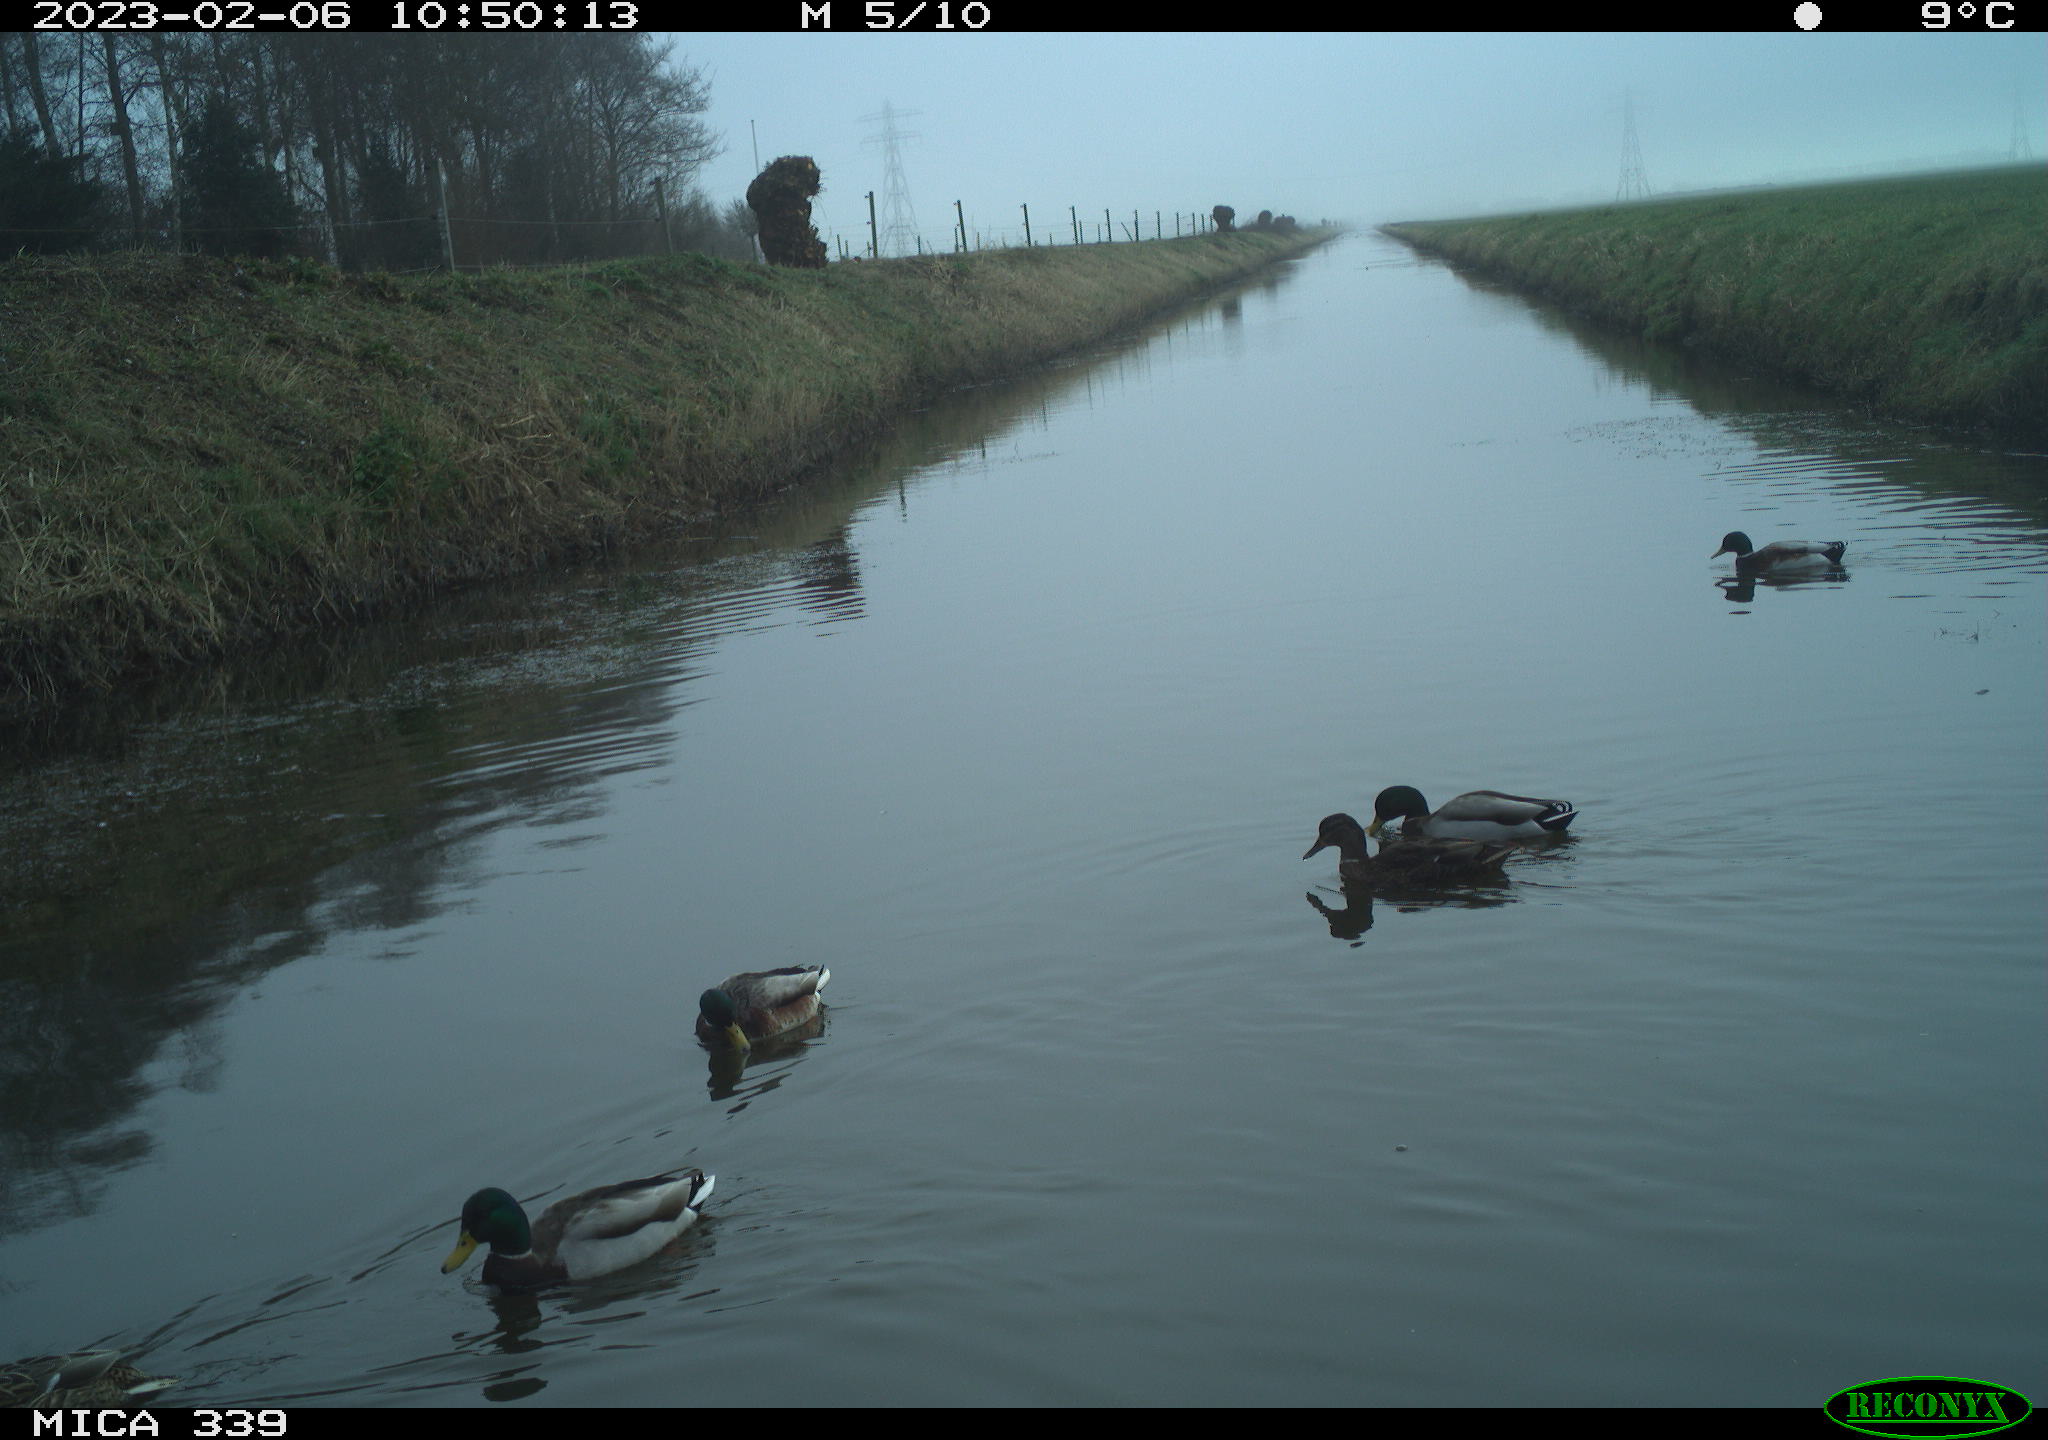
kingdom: Animalia
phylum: Chordata
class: Aves
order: Anseriformes
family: Anatidae
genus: Anas
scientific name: Anas
